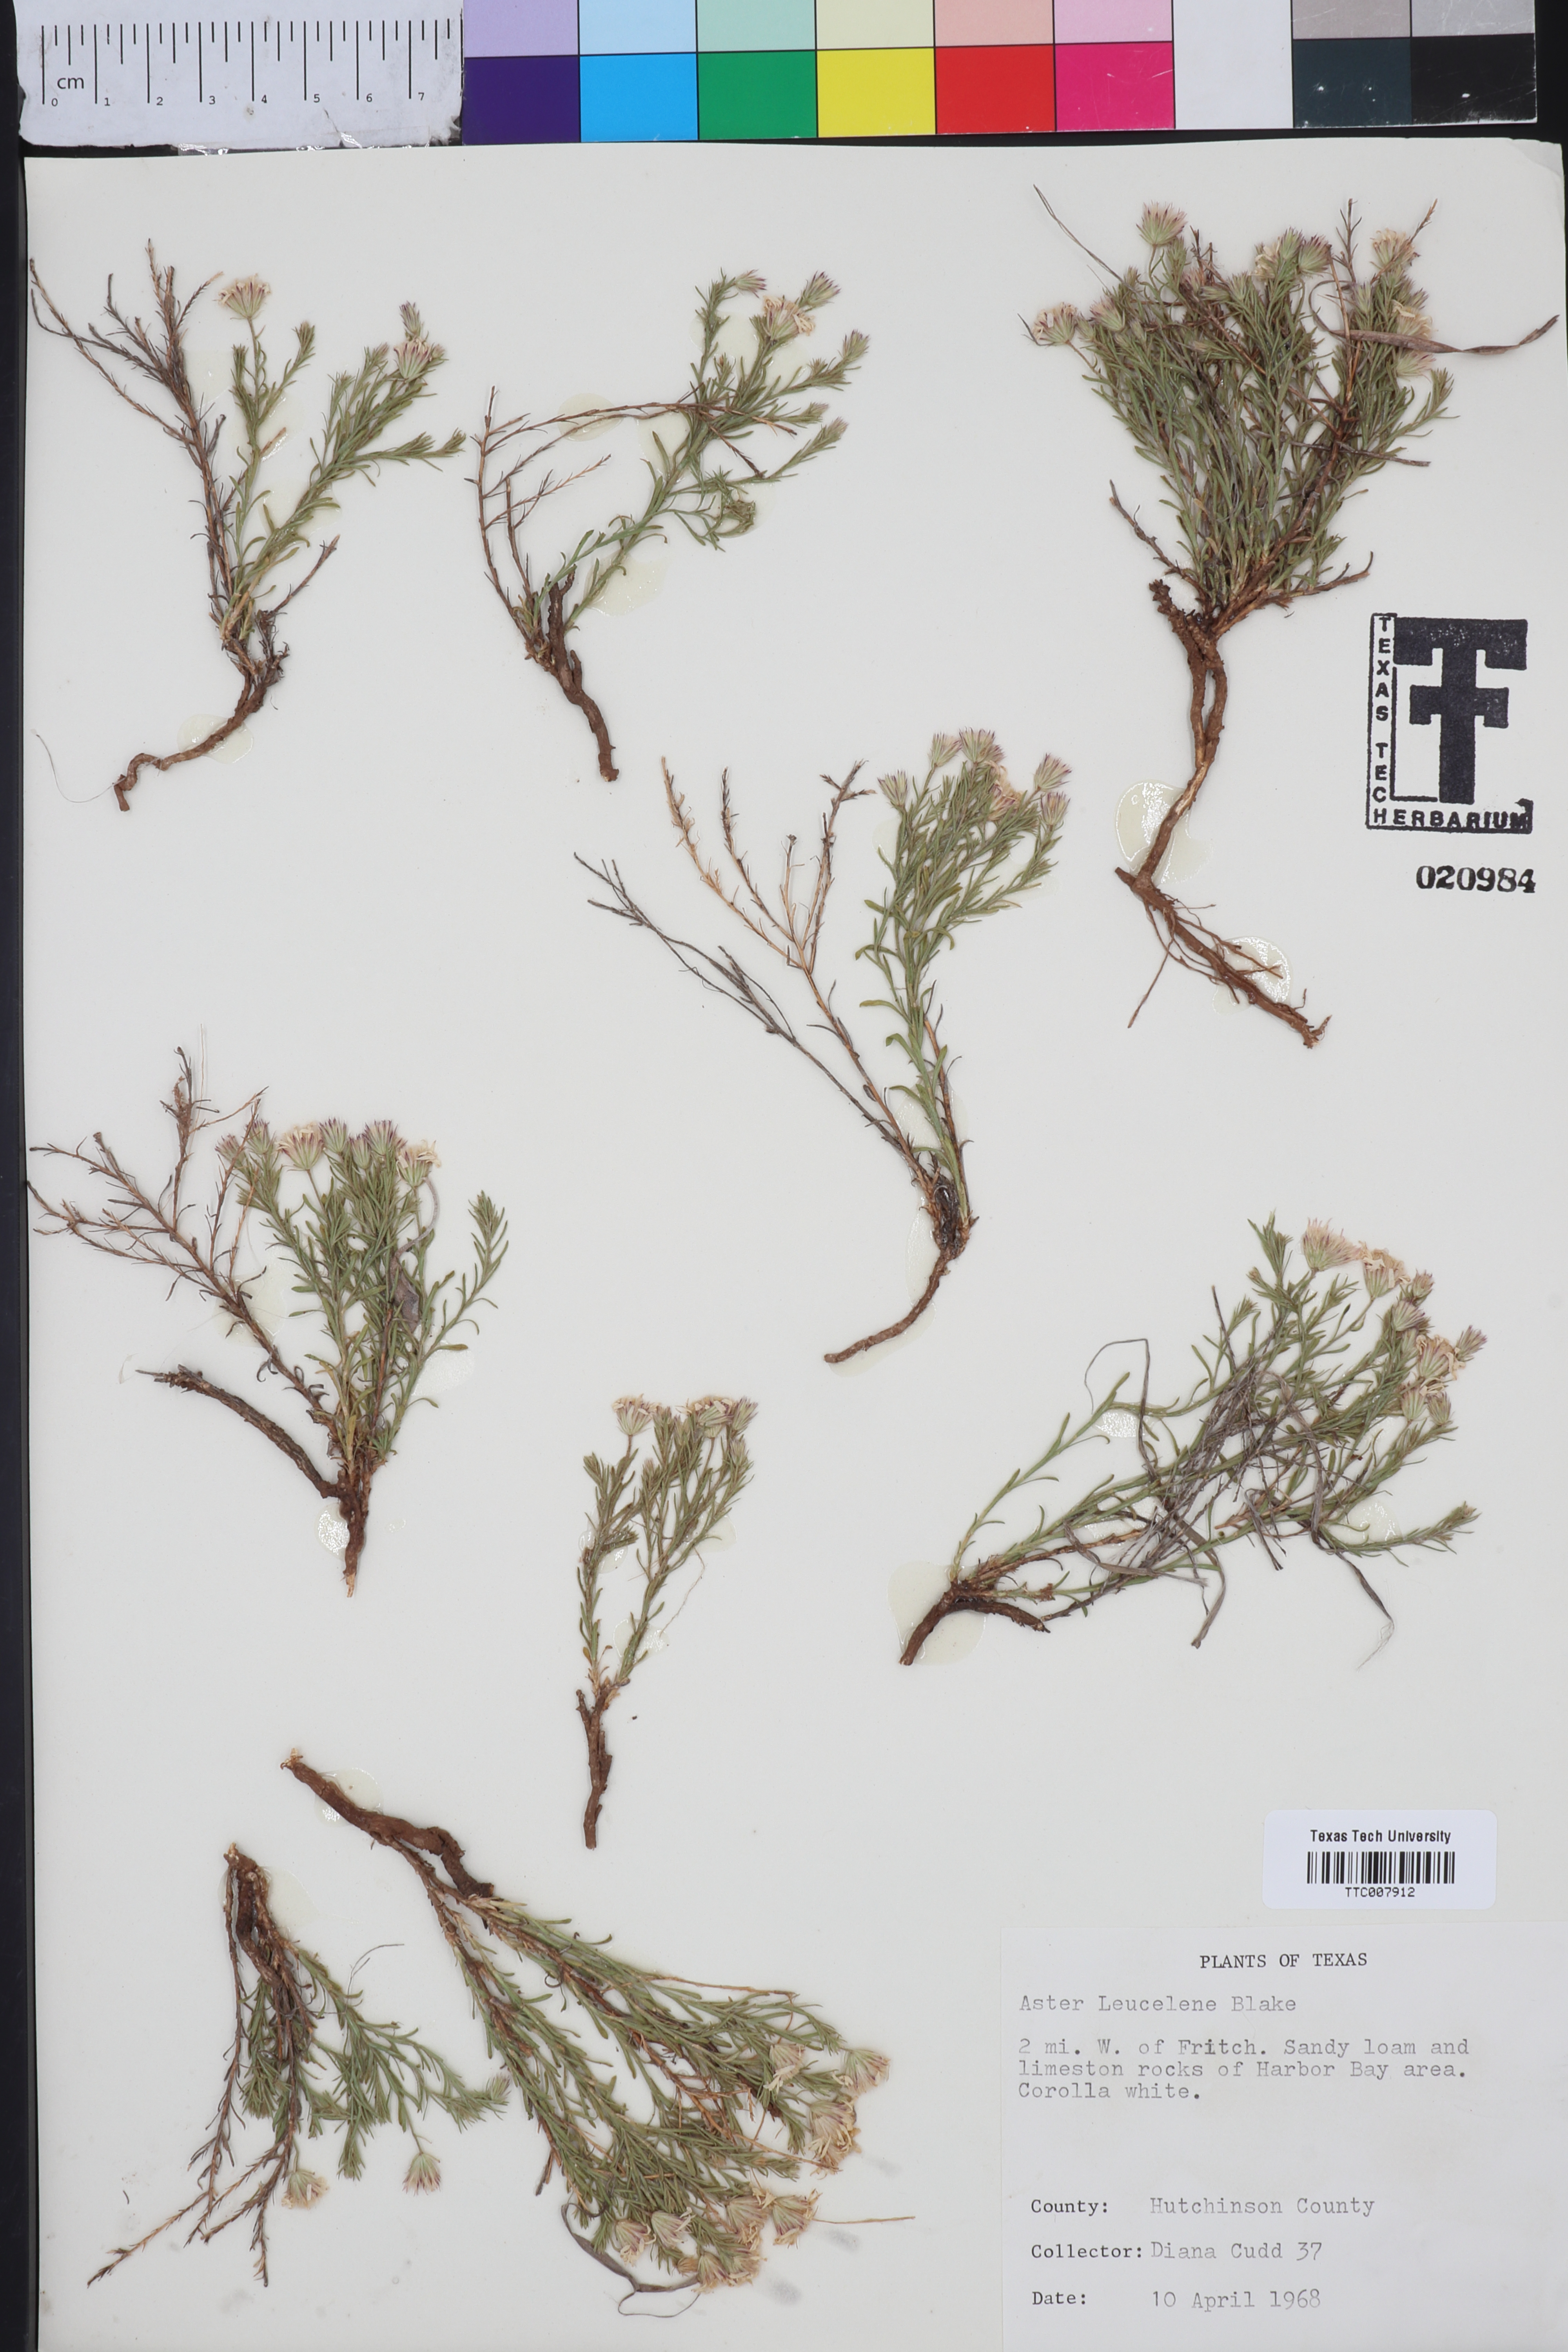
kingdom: Plantae
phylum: Tracheophyta
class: Magnoliopsida
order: Asterales
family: Asteraceae
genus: Chaetopappa
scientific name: Chaetopappa ericoides
